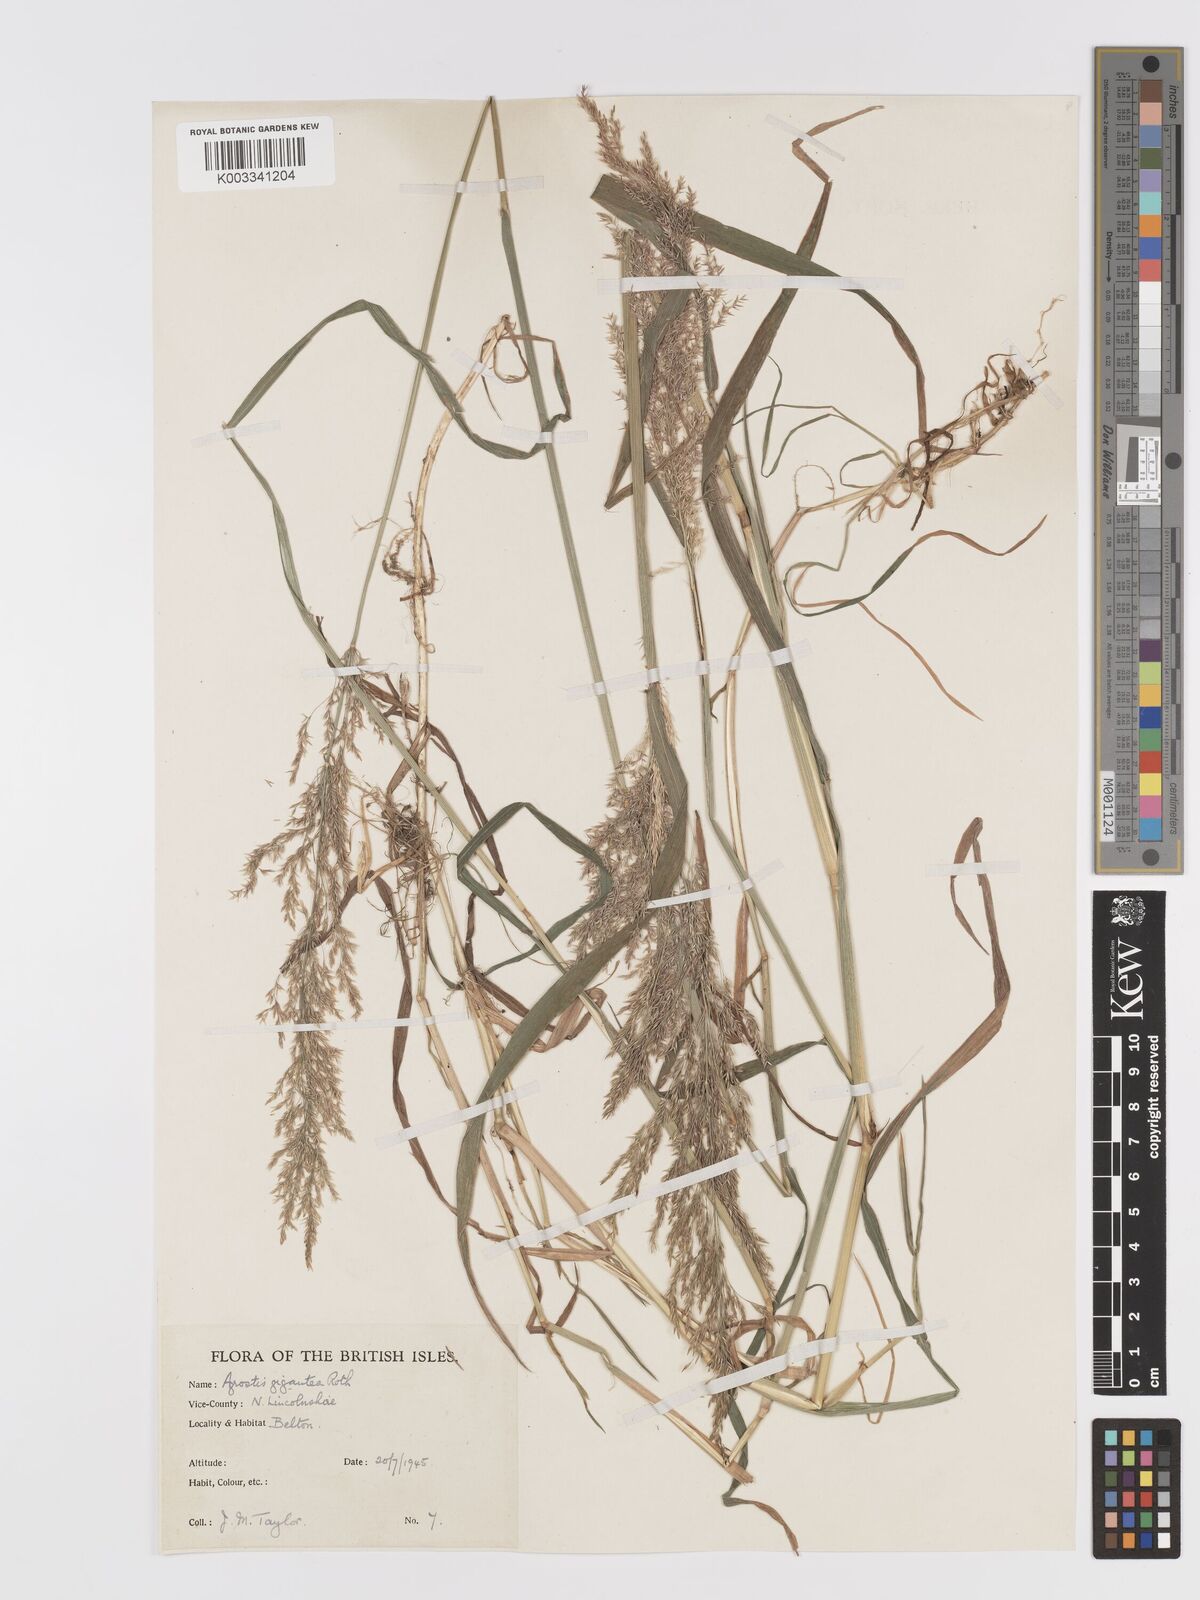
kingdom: Plantae
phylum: Tracheophyta
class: Liliopsida
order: Poales
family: Poaceae
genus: Agrostis
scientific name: Agrostis gigantea
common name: Black bent
